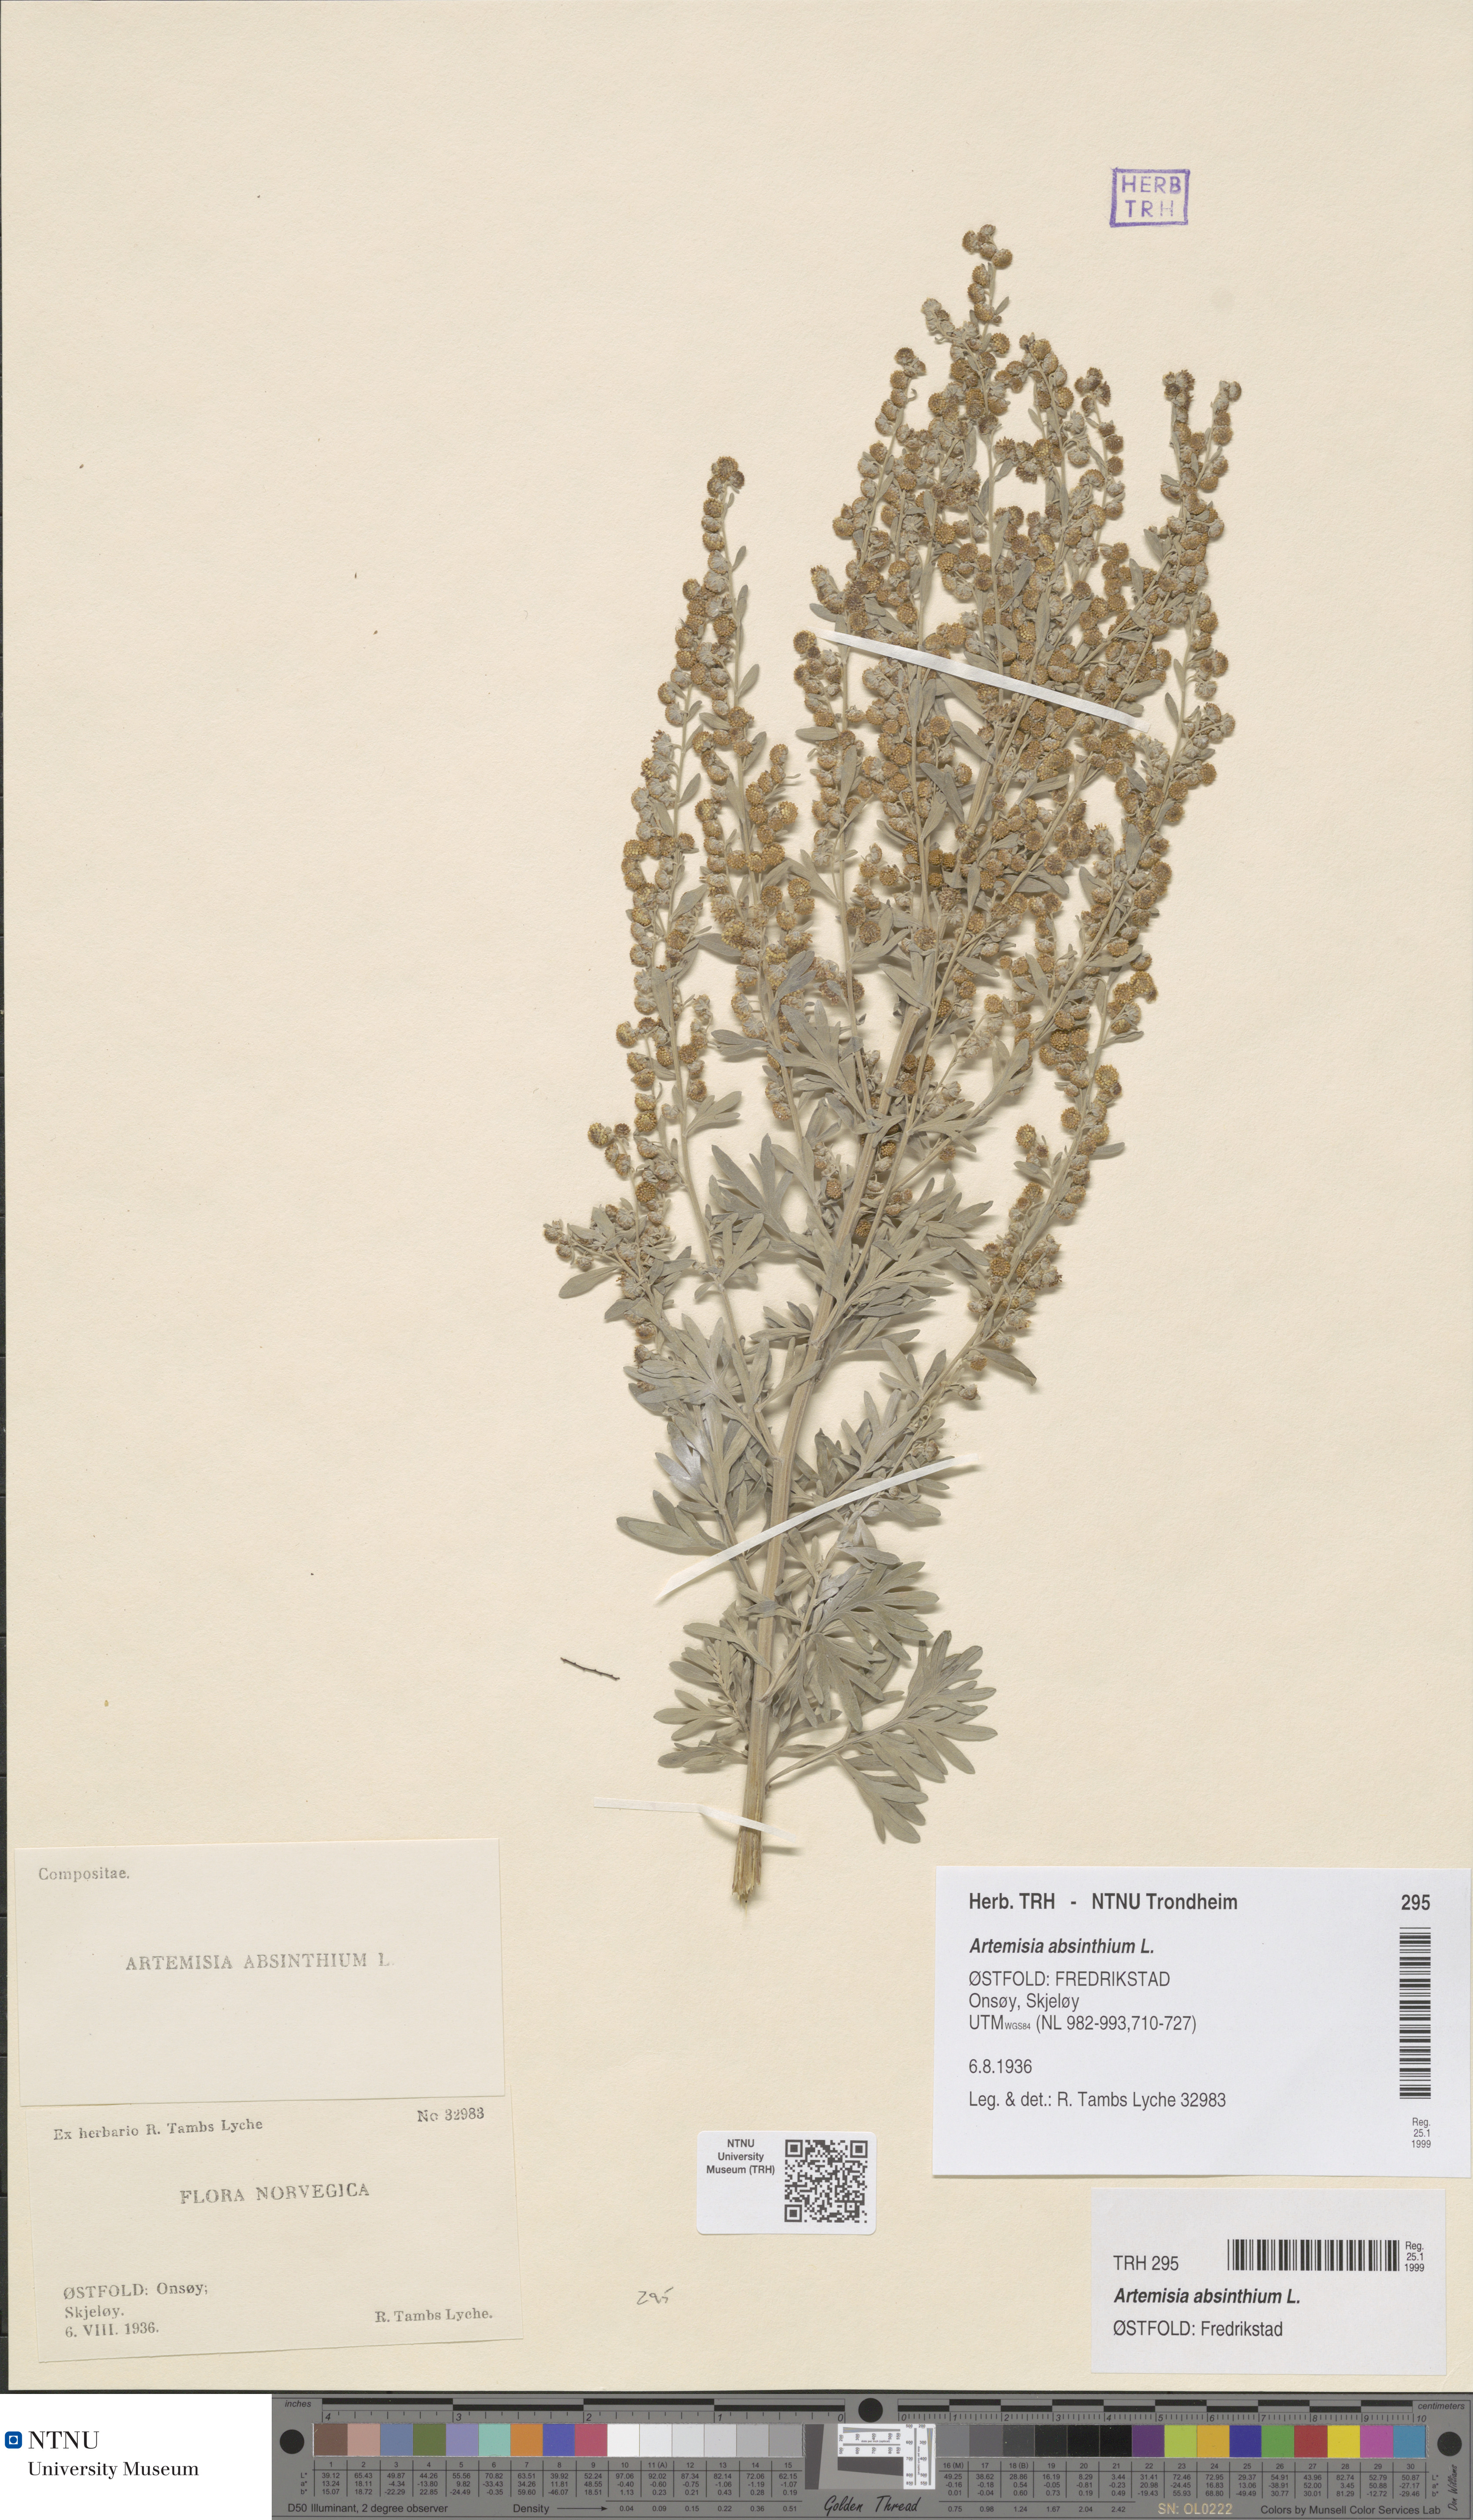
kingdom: Plantae
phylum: Tracheophyta
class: Magnoliopsida
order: Asterales
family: Asteraceae
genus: Artemisia
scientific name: Artemisia absinthium
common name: Wormwood
